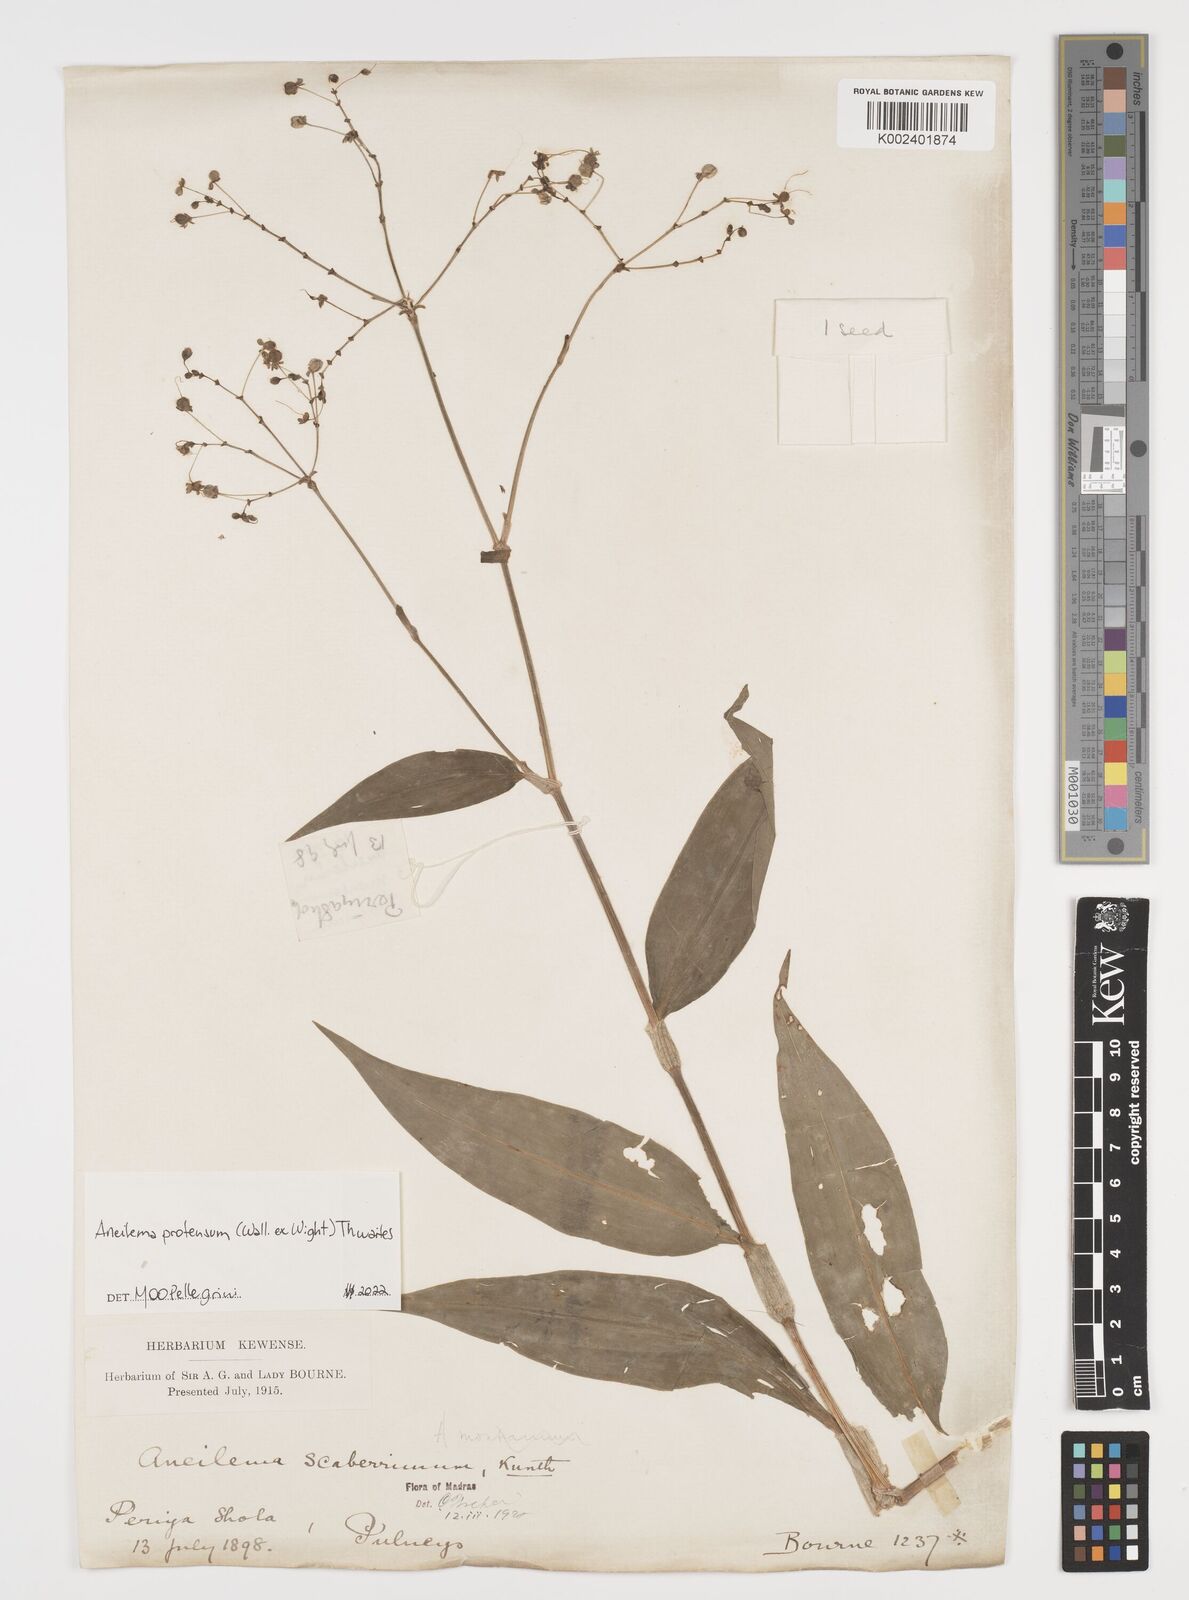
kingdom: Plantae
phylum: Tracheophyta
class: Liliopsida
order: Commelinales
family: Commelinaceae
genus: Rhopalephora
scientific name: Rhopalephora
